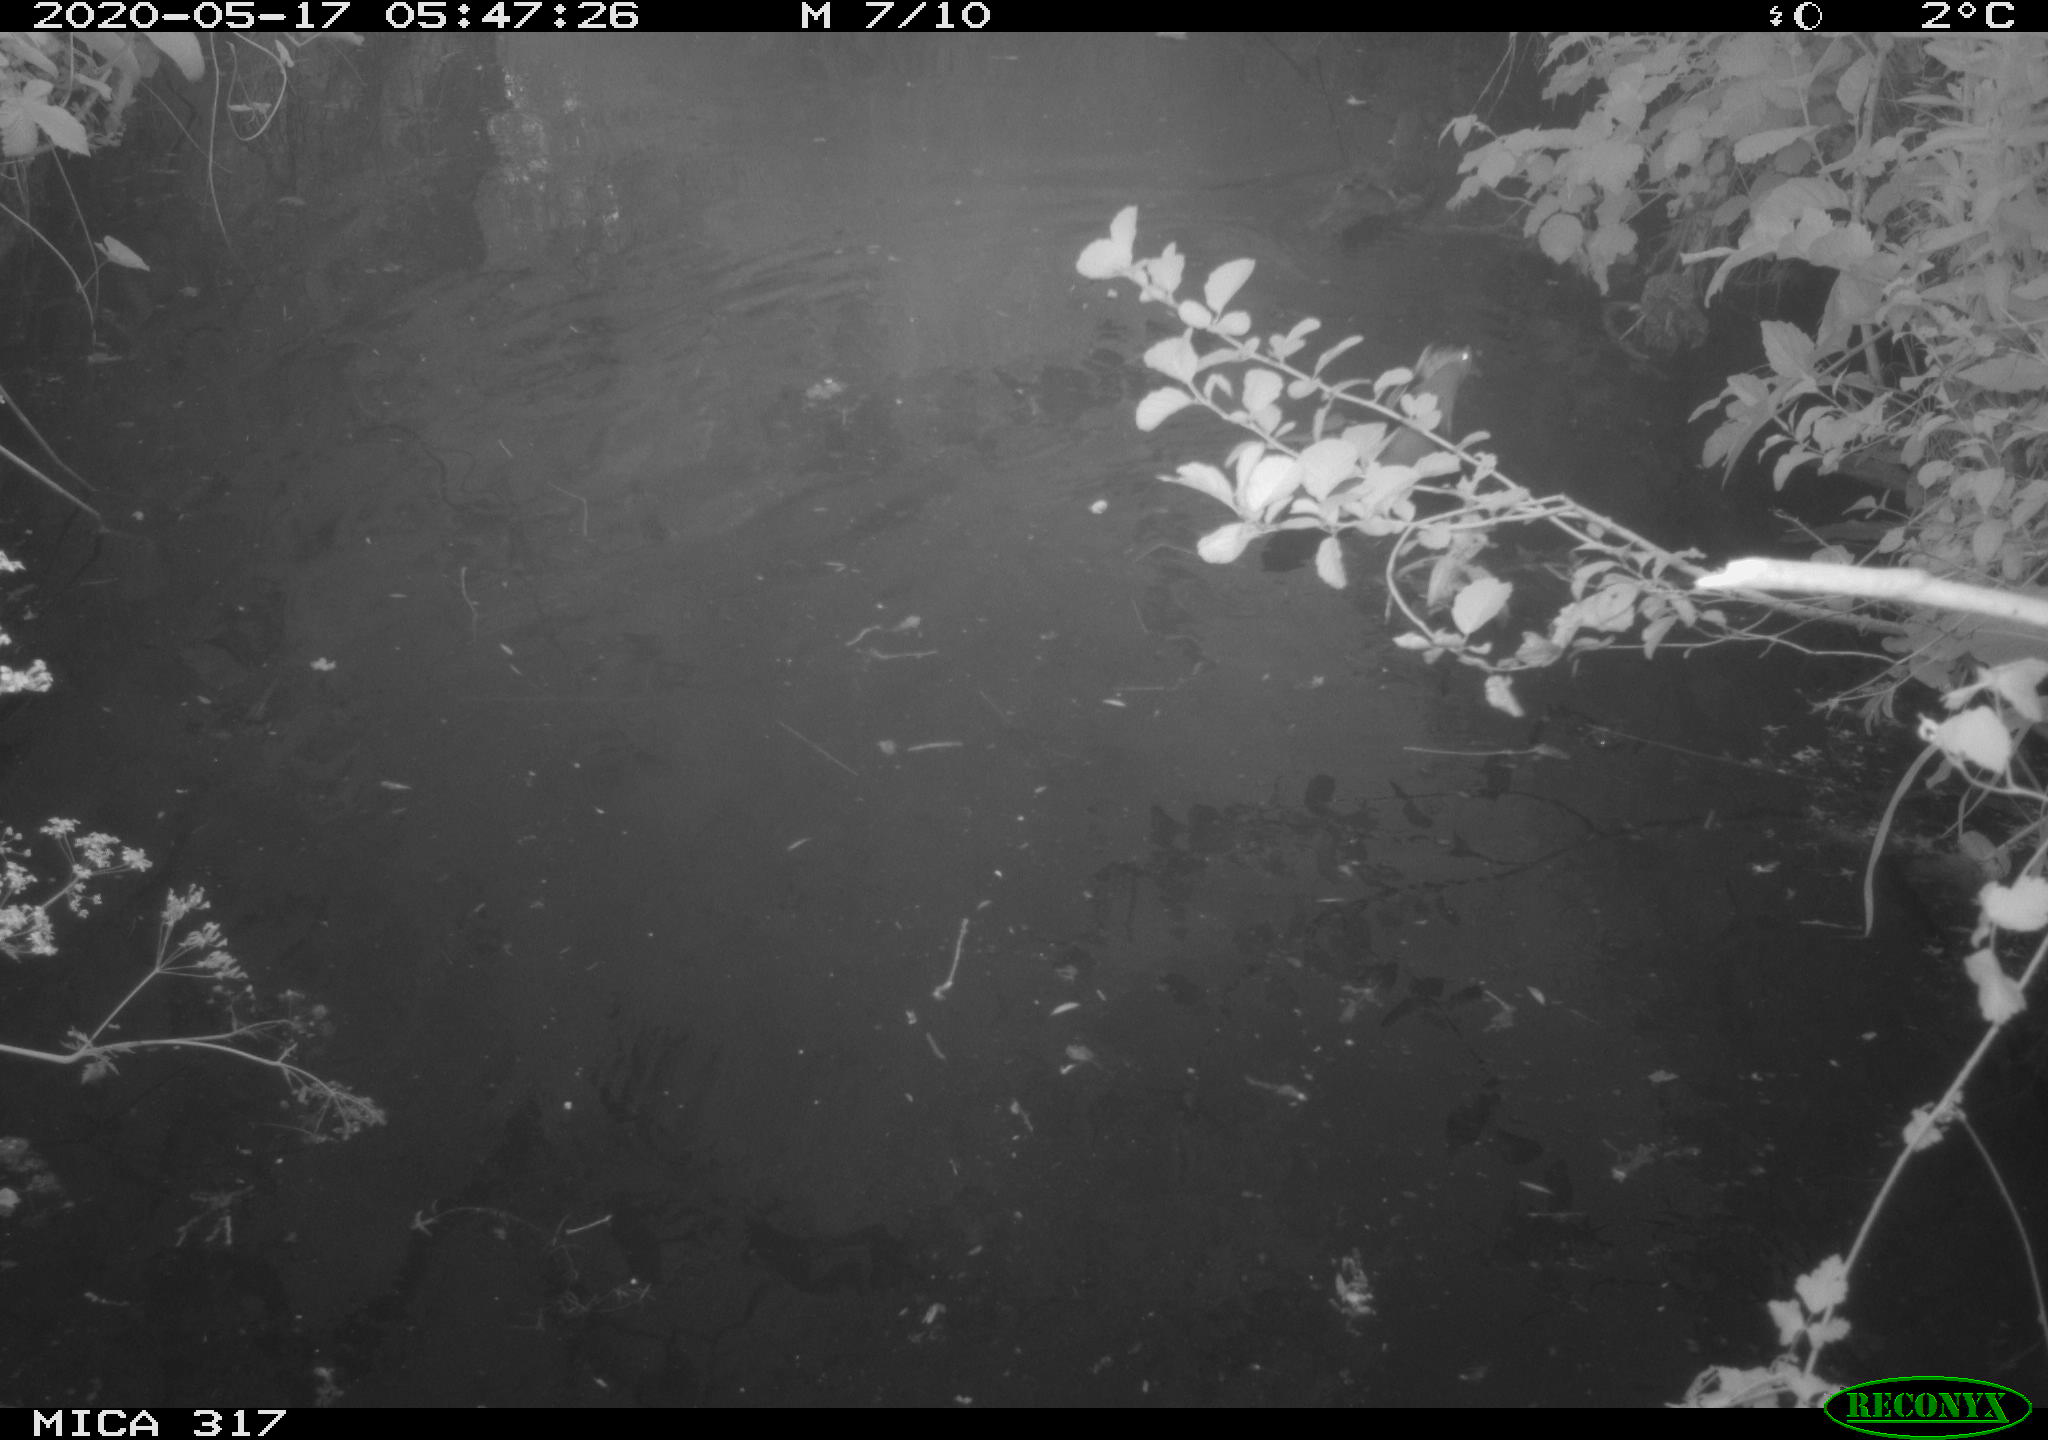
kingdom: Animalia
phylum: Chordata
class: Aves
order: Anseriformes
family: Anatidae
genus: Aix
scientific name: Aix galericulata
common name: Mandarin duck
